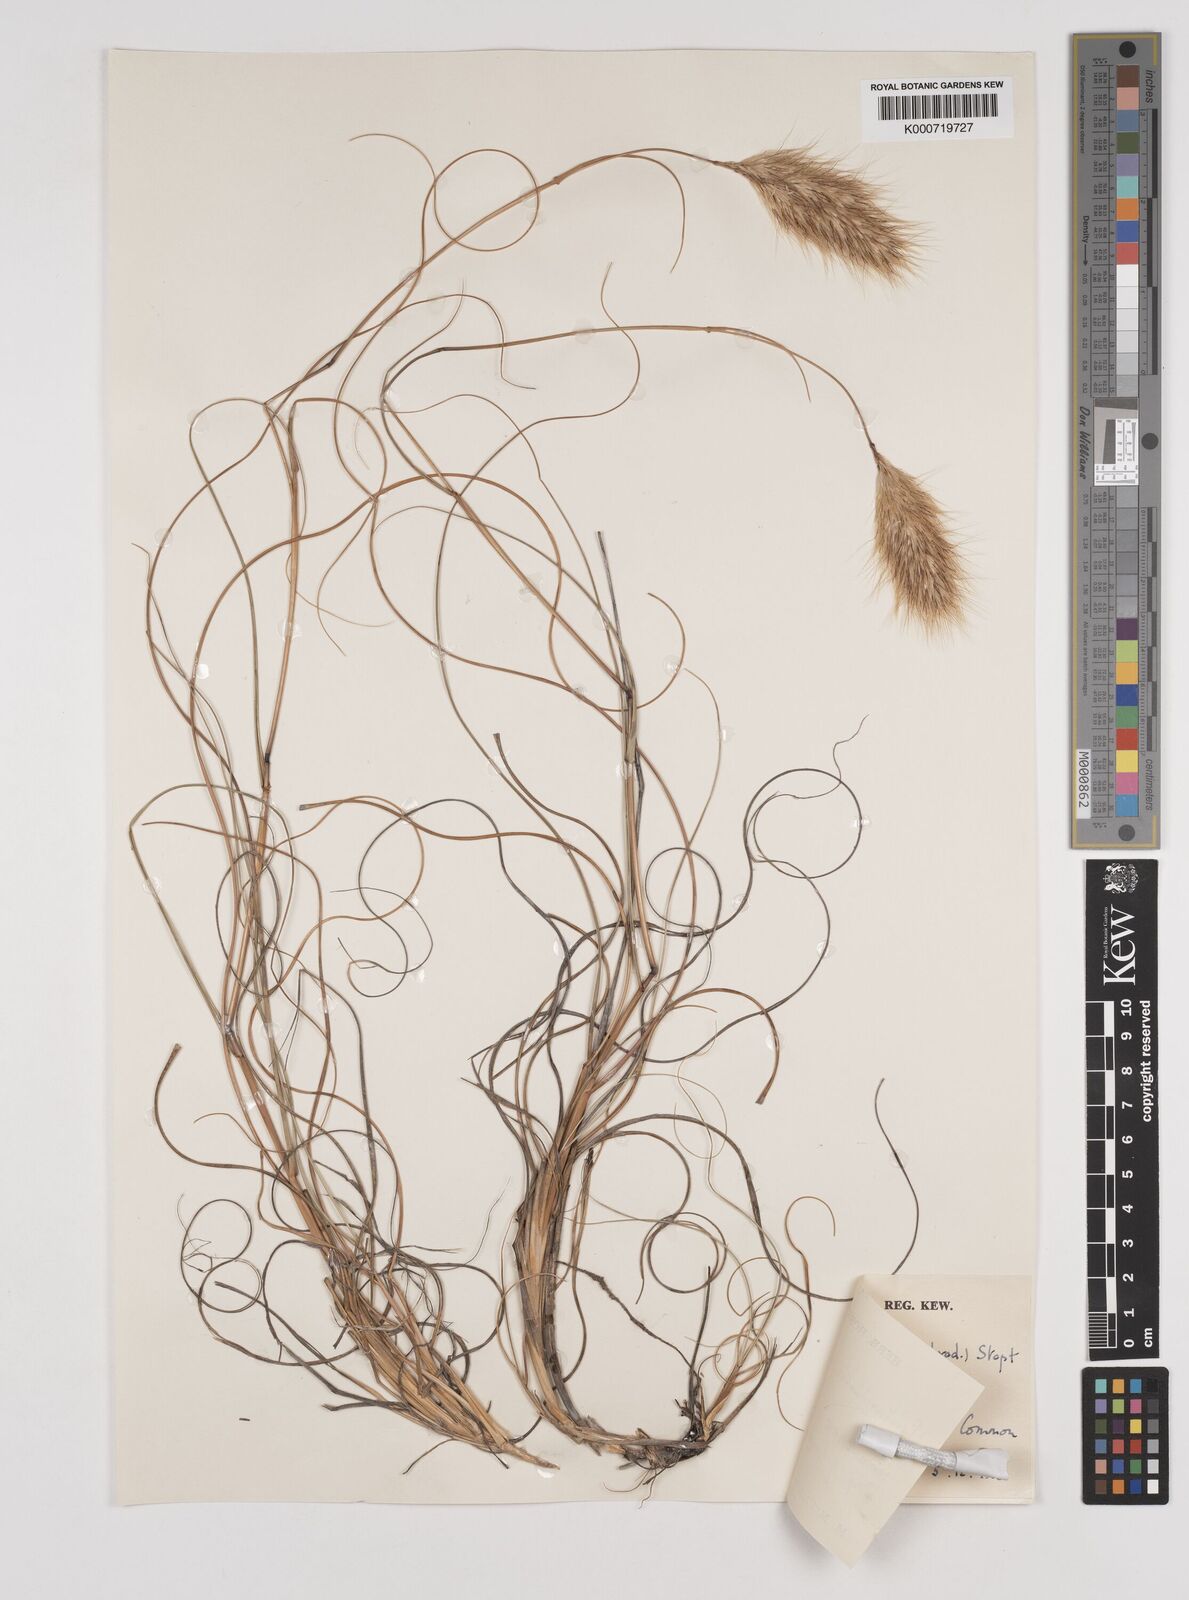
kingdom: Plantae
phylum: Tracheophyta
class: Liliopsida
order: Poales
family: Poaceae
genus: Pentameris
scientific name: Pentameris curvifolia
